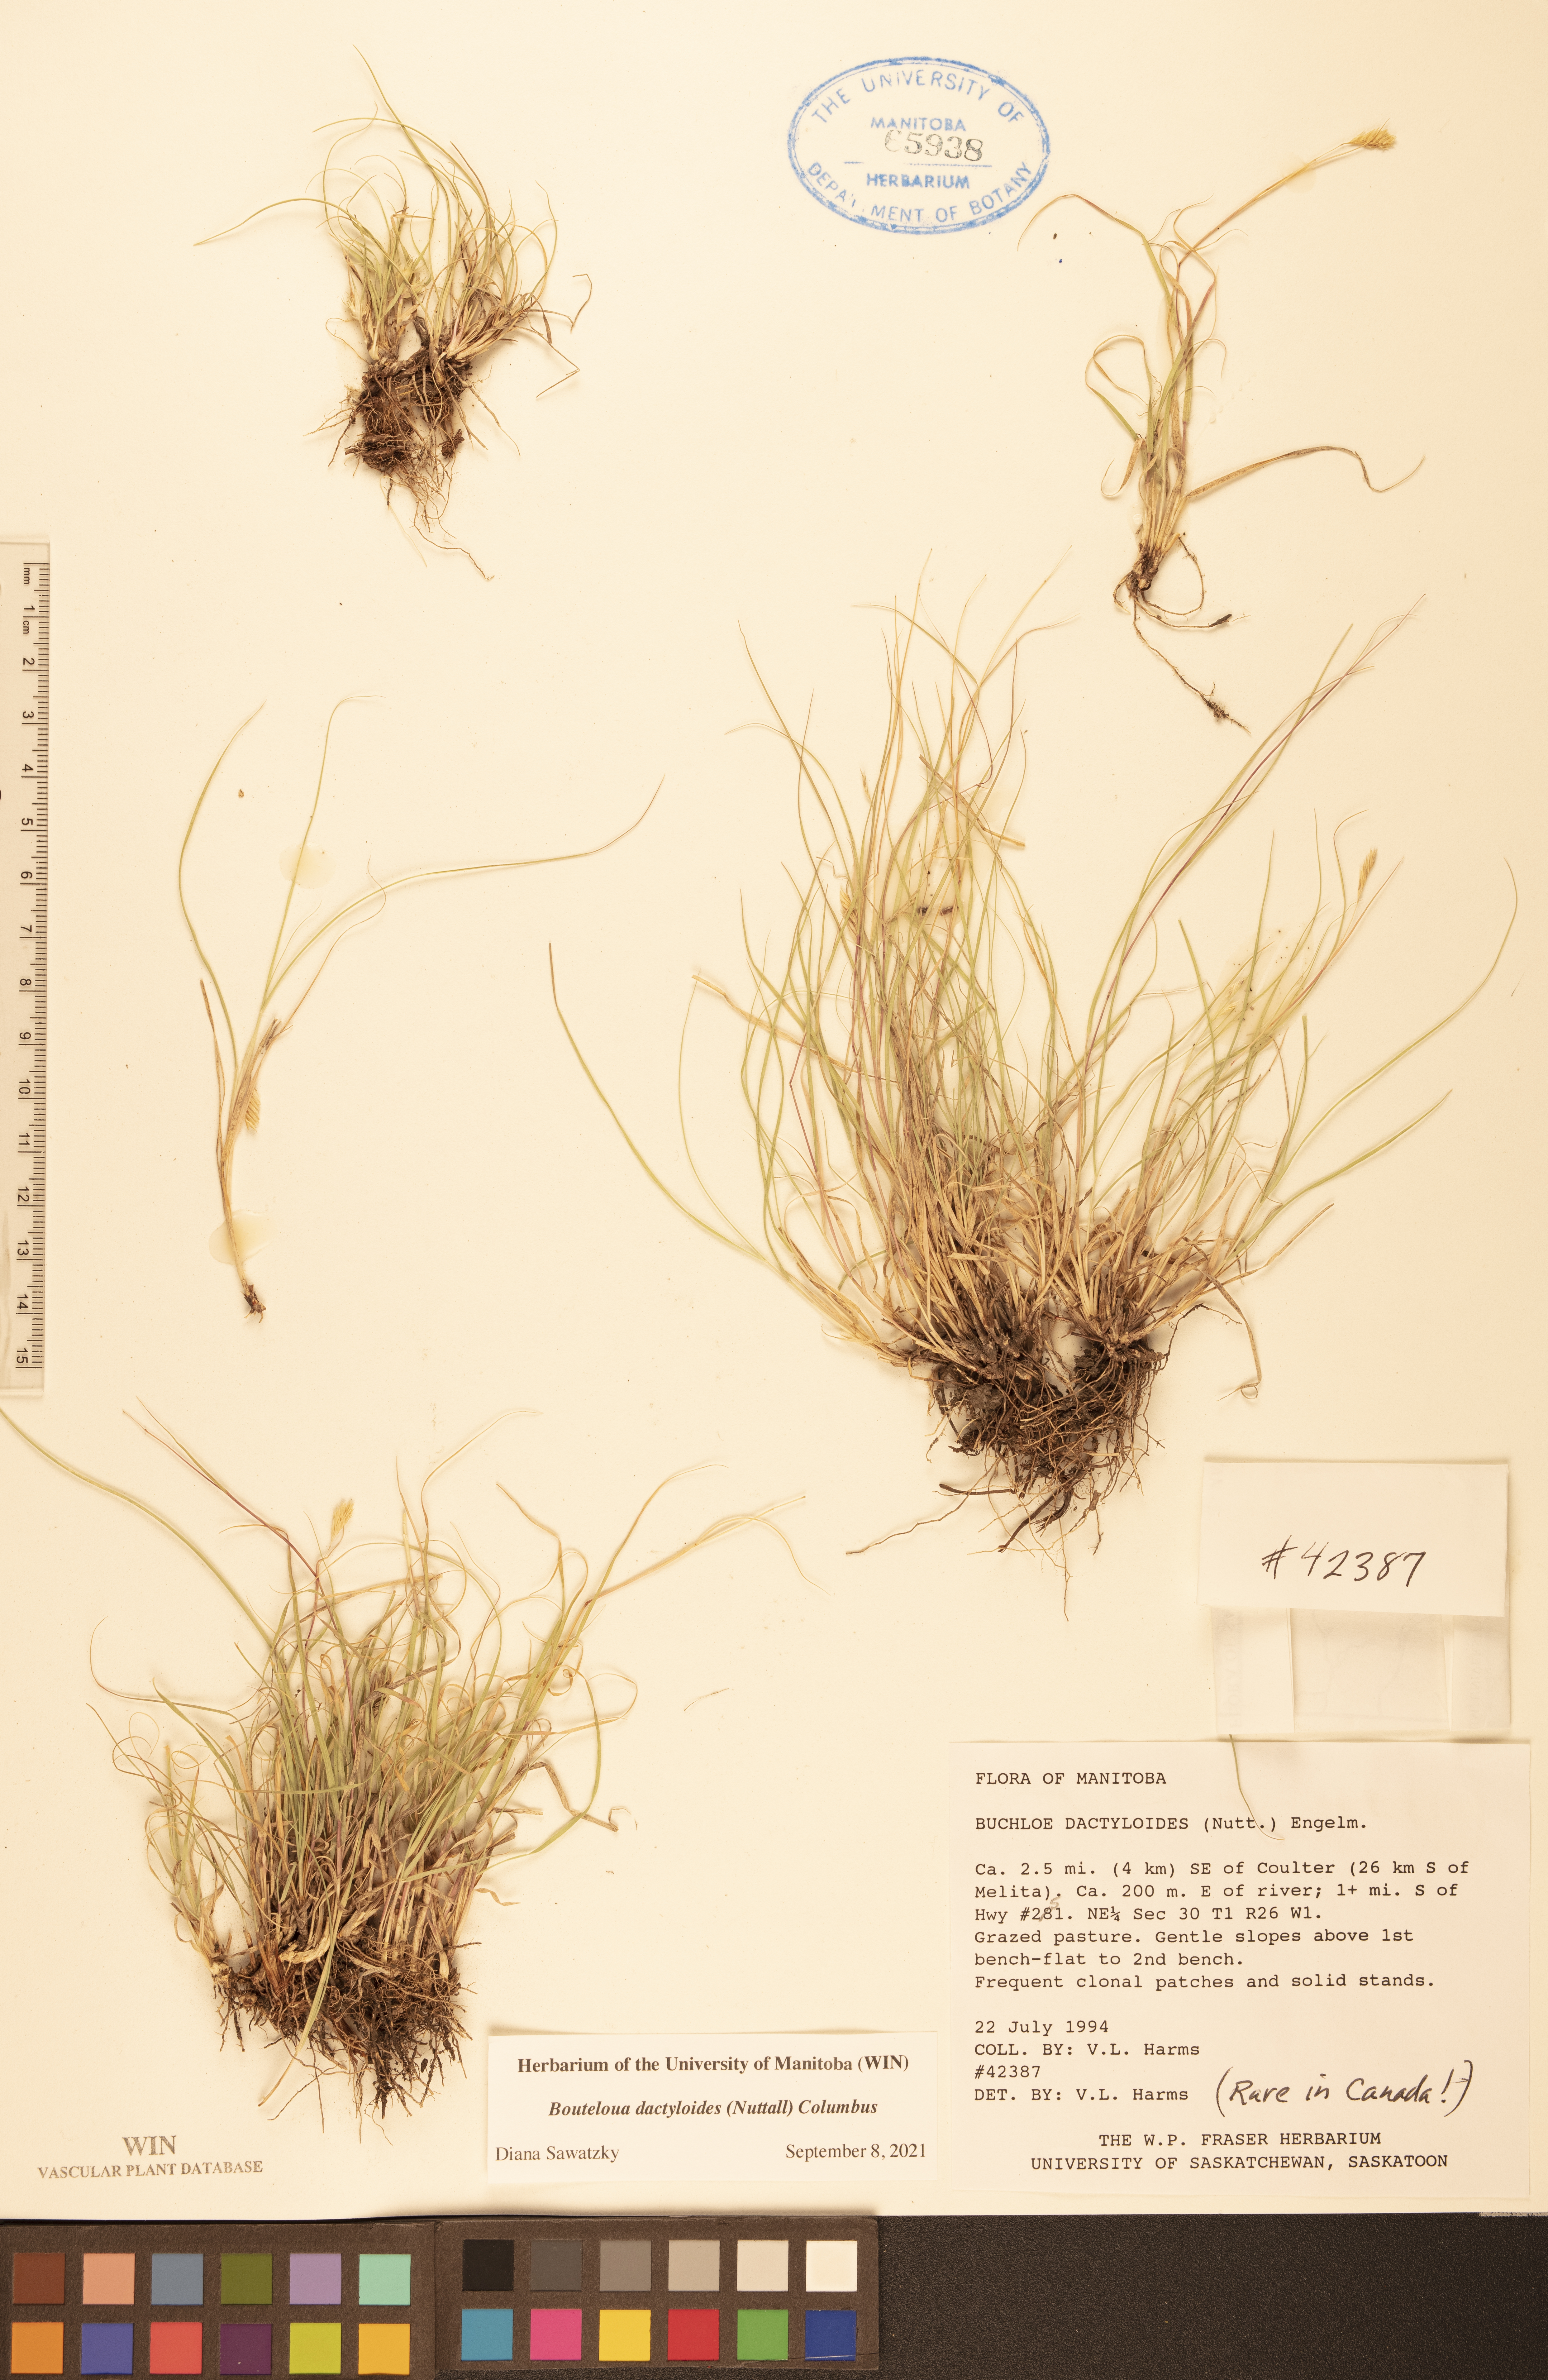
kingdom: Plantae
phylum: Tracheophyta
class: Liliopsida
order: Poales
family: Poaceae
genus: Bouteloua
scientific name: Bouteloua dactyloides
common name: Buffalo grass
